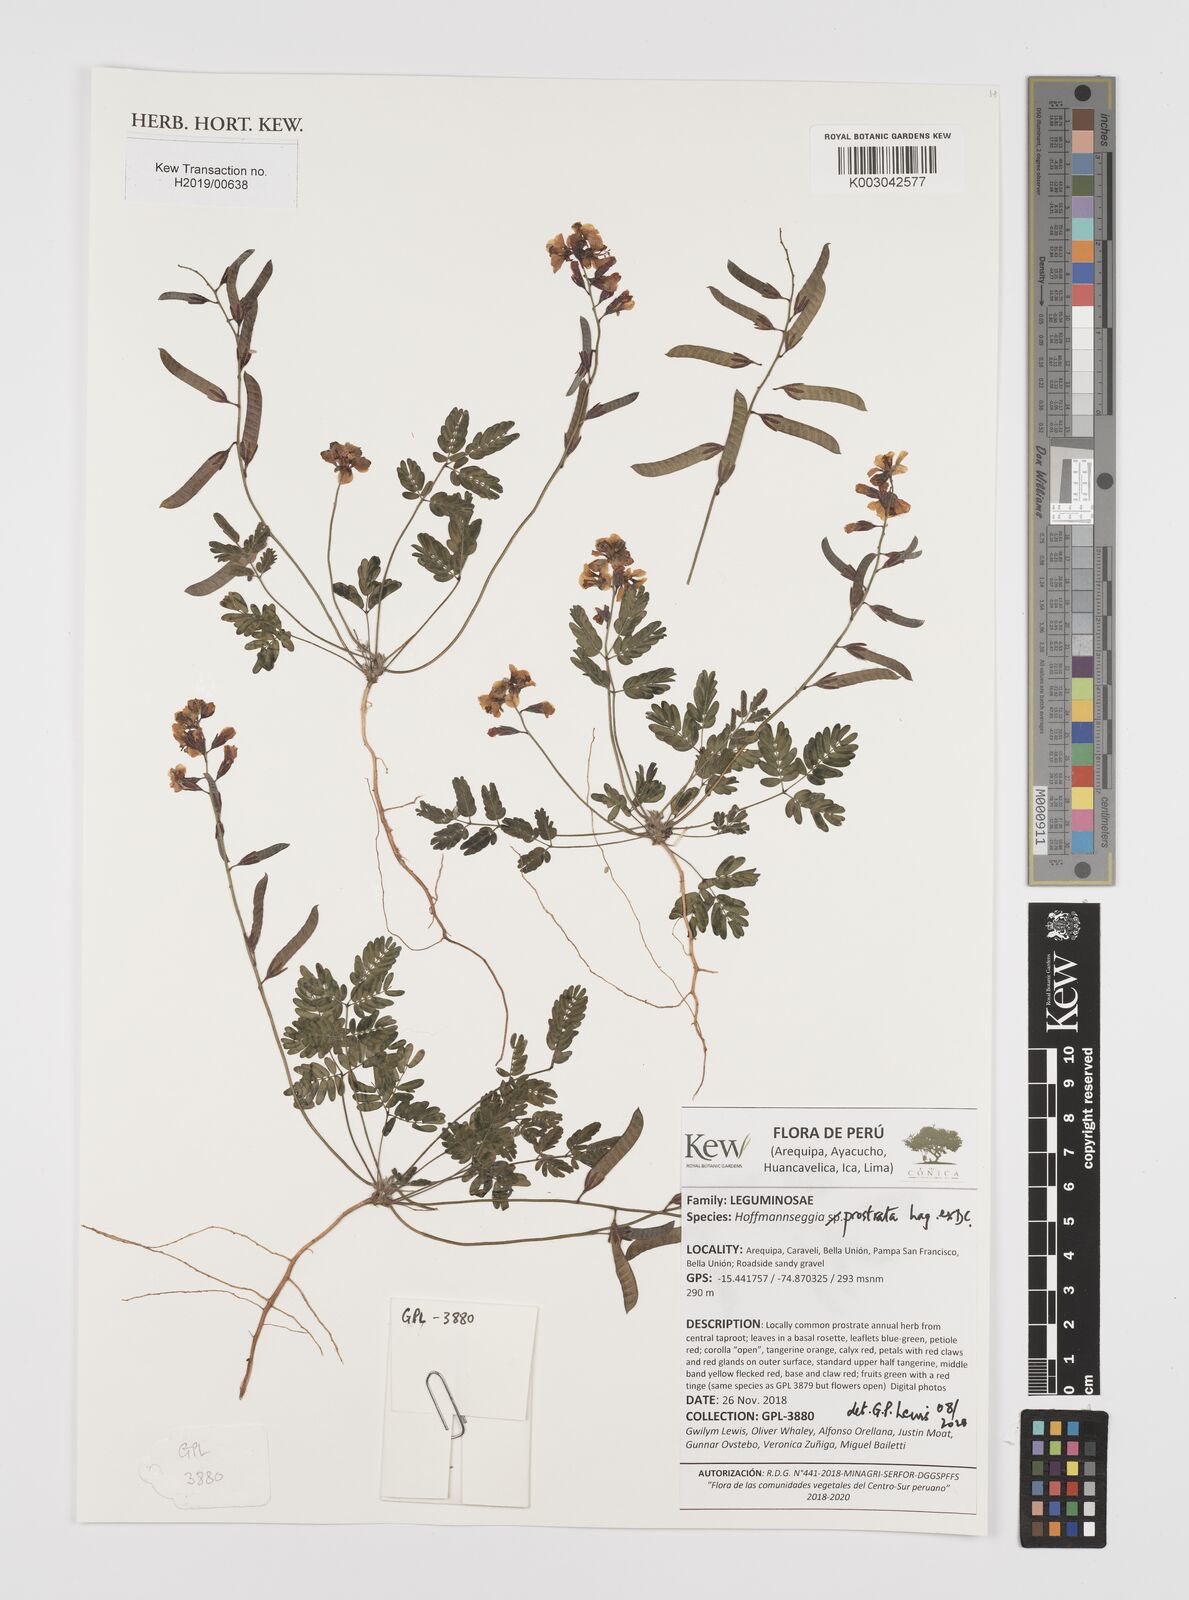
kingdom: Plantae
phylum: Tracheophyta
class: Magnoliopsida
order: Fabales
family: Fabaceae
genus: Hoffmannseggia
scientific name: Hoffmannseggia prostrata
